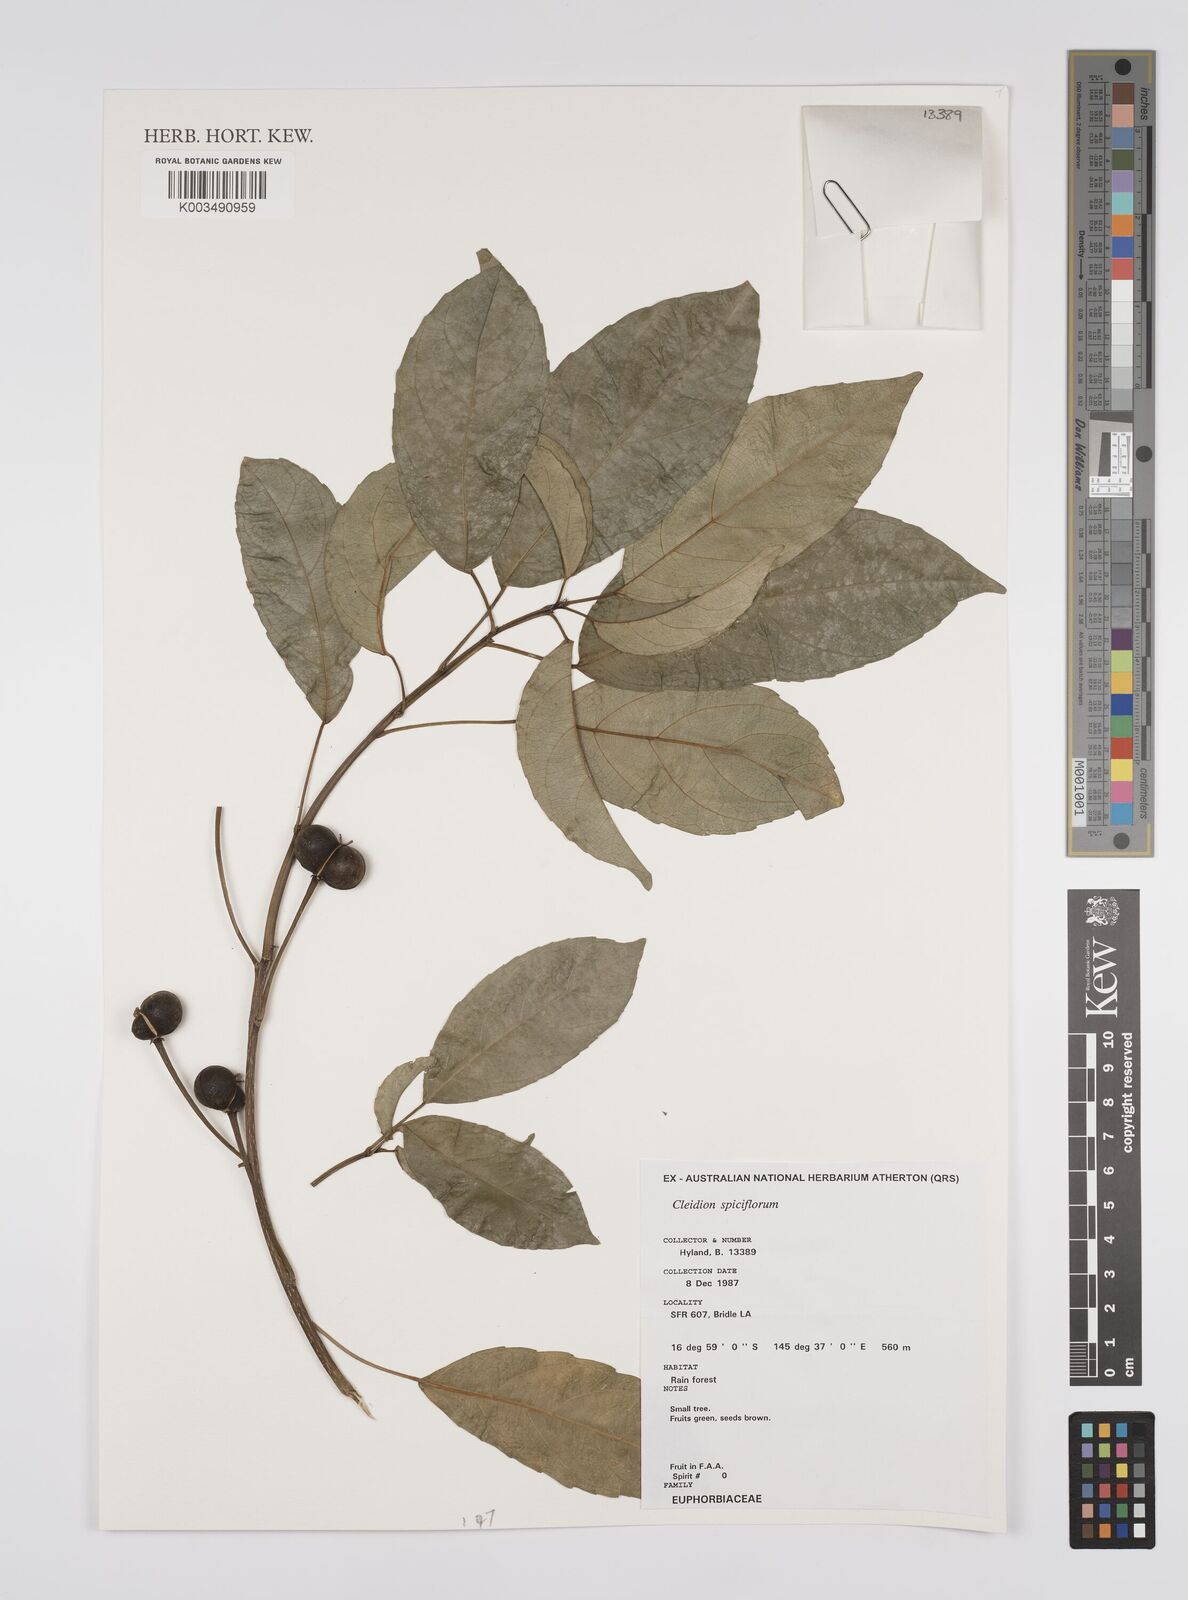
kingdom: Plantae
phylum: Tracheophyta
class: Magnoliopsida
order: Malpighiales
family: Euphorbiaceae
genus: Cleidion
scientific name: Cleidion javanicum
